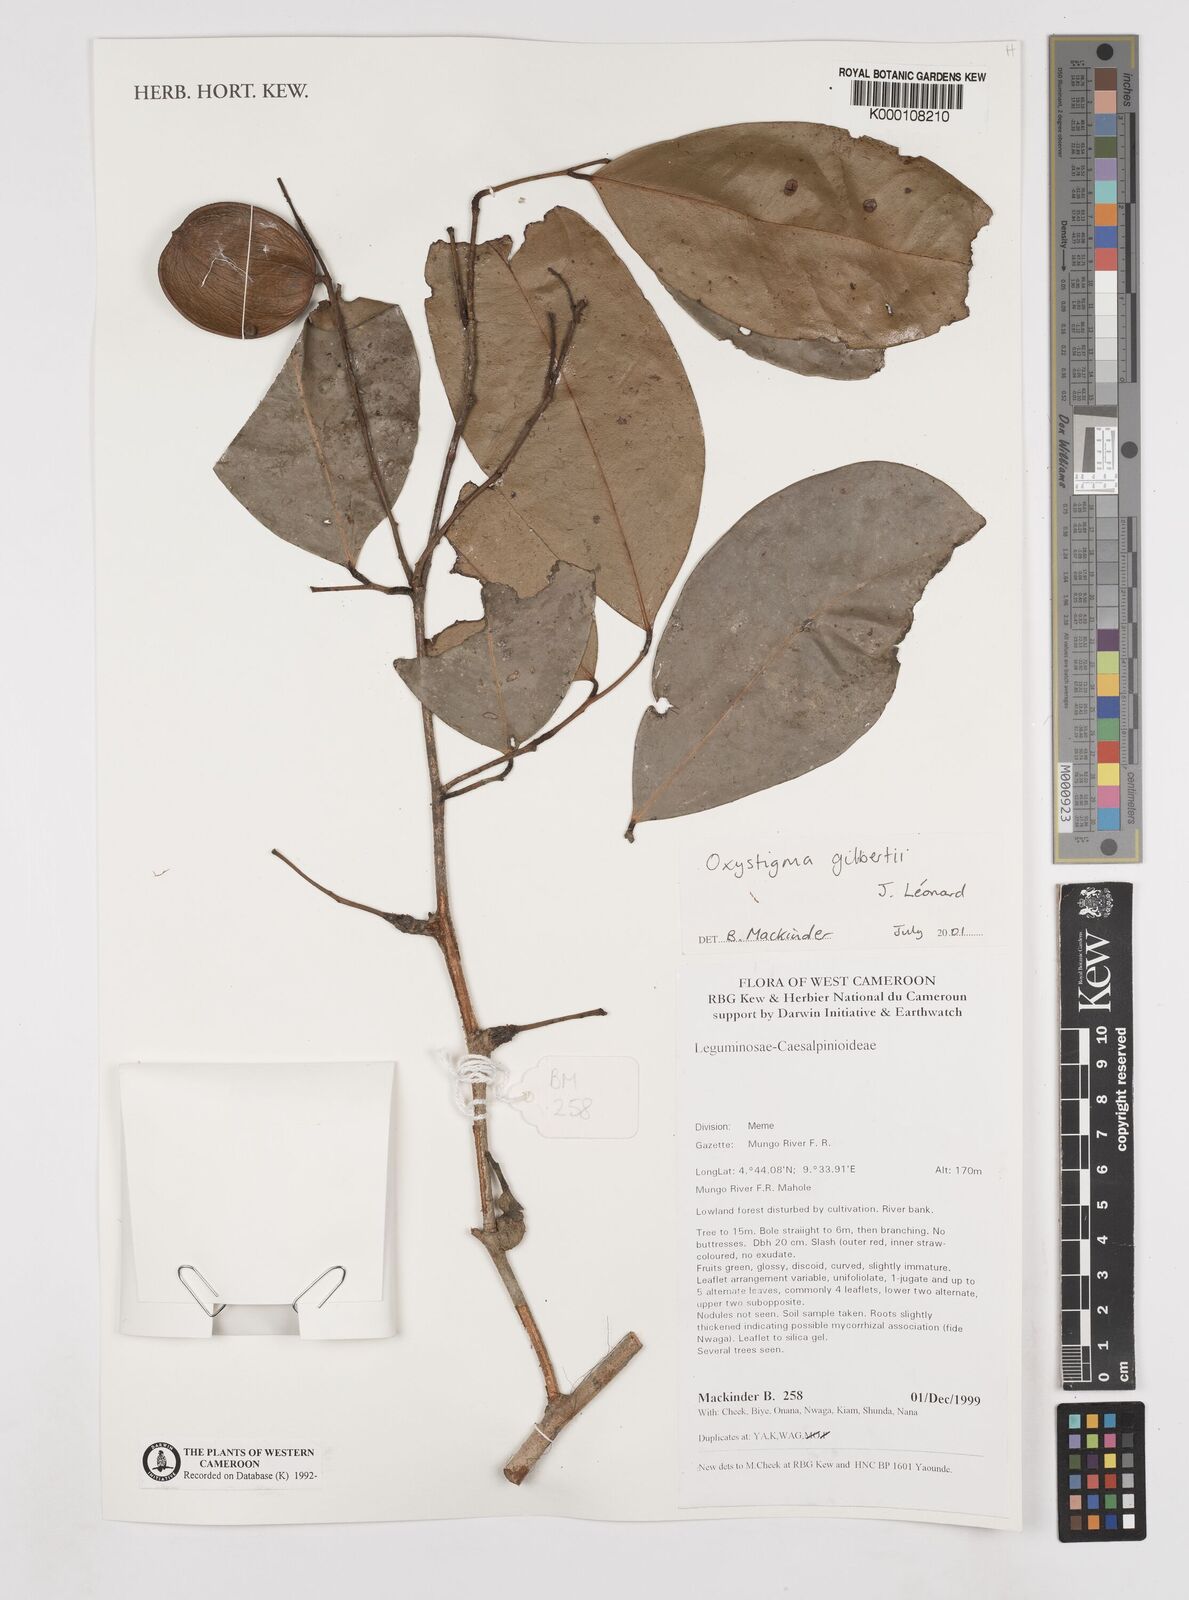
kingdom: Animalia
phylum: Arthropoda
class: Insecta
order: Odonata
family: Heteragrionidae
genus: Oxystigma
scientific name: Oxystigma
